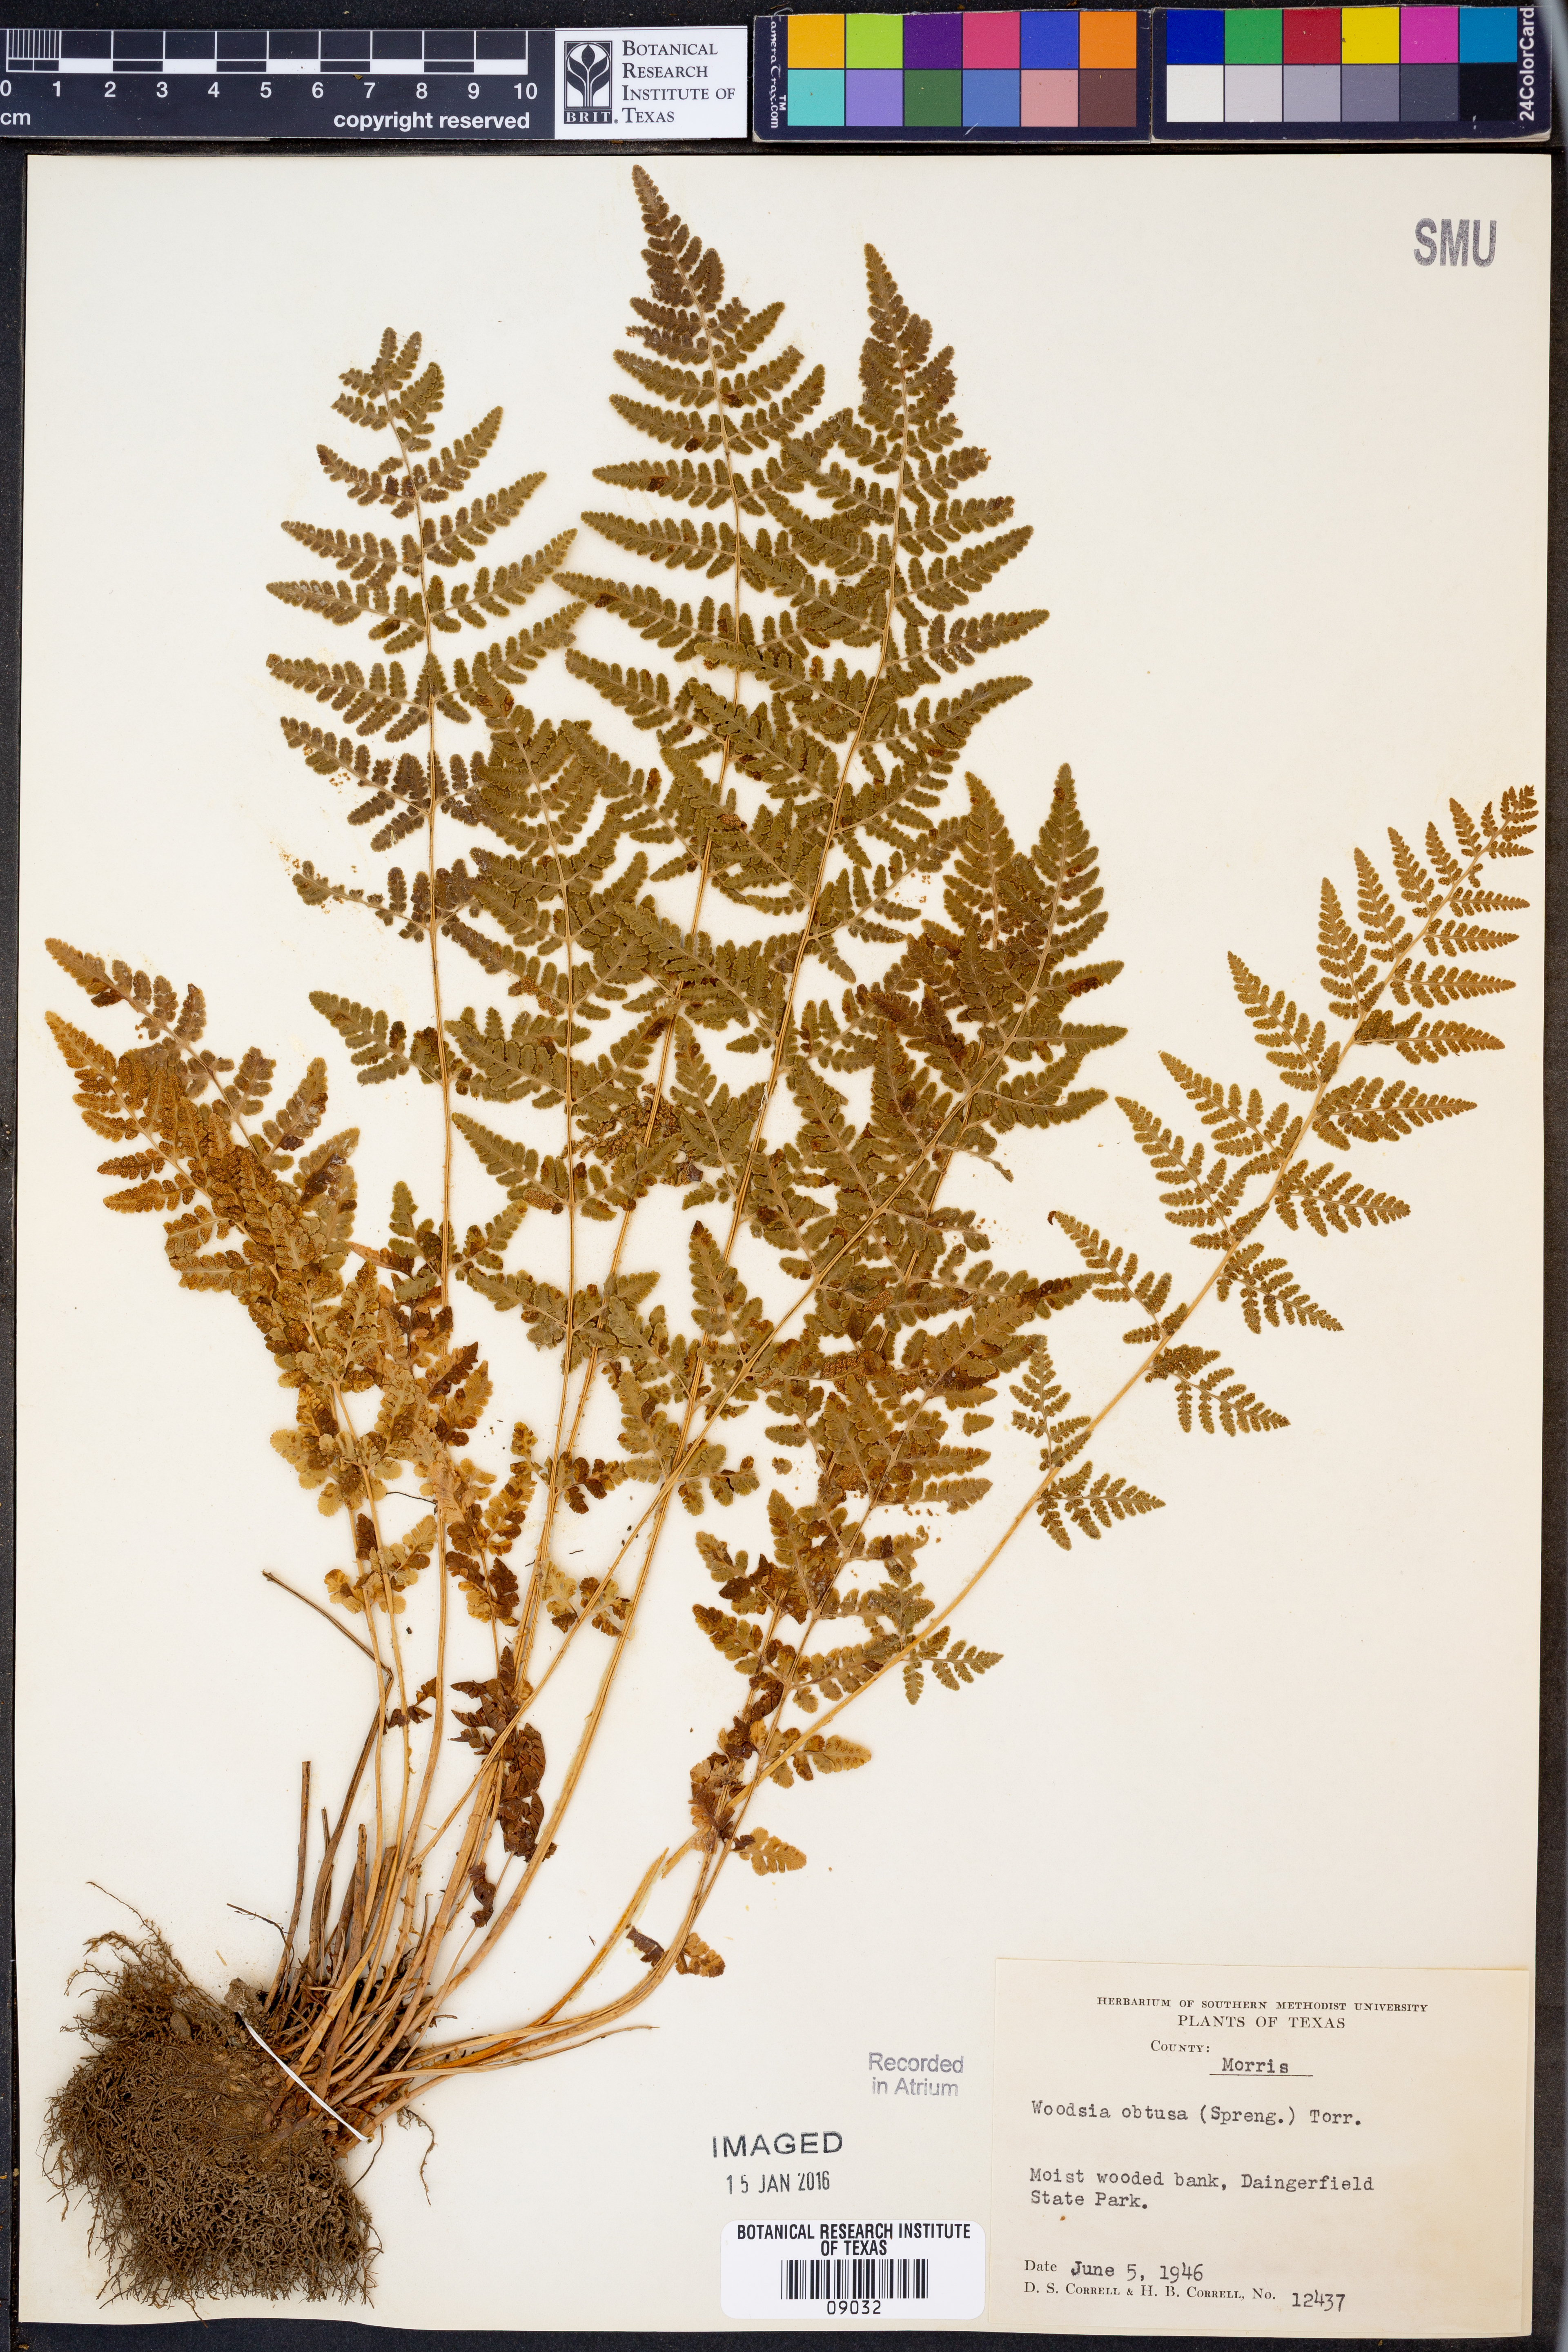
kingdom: Plantae
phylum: Tracheophyta
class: Polypodiopsida
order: Polypodiales
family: Woodsiaceae
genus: Physematium
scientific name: Physematium obtusum
